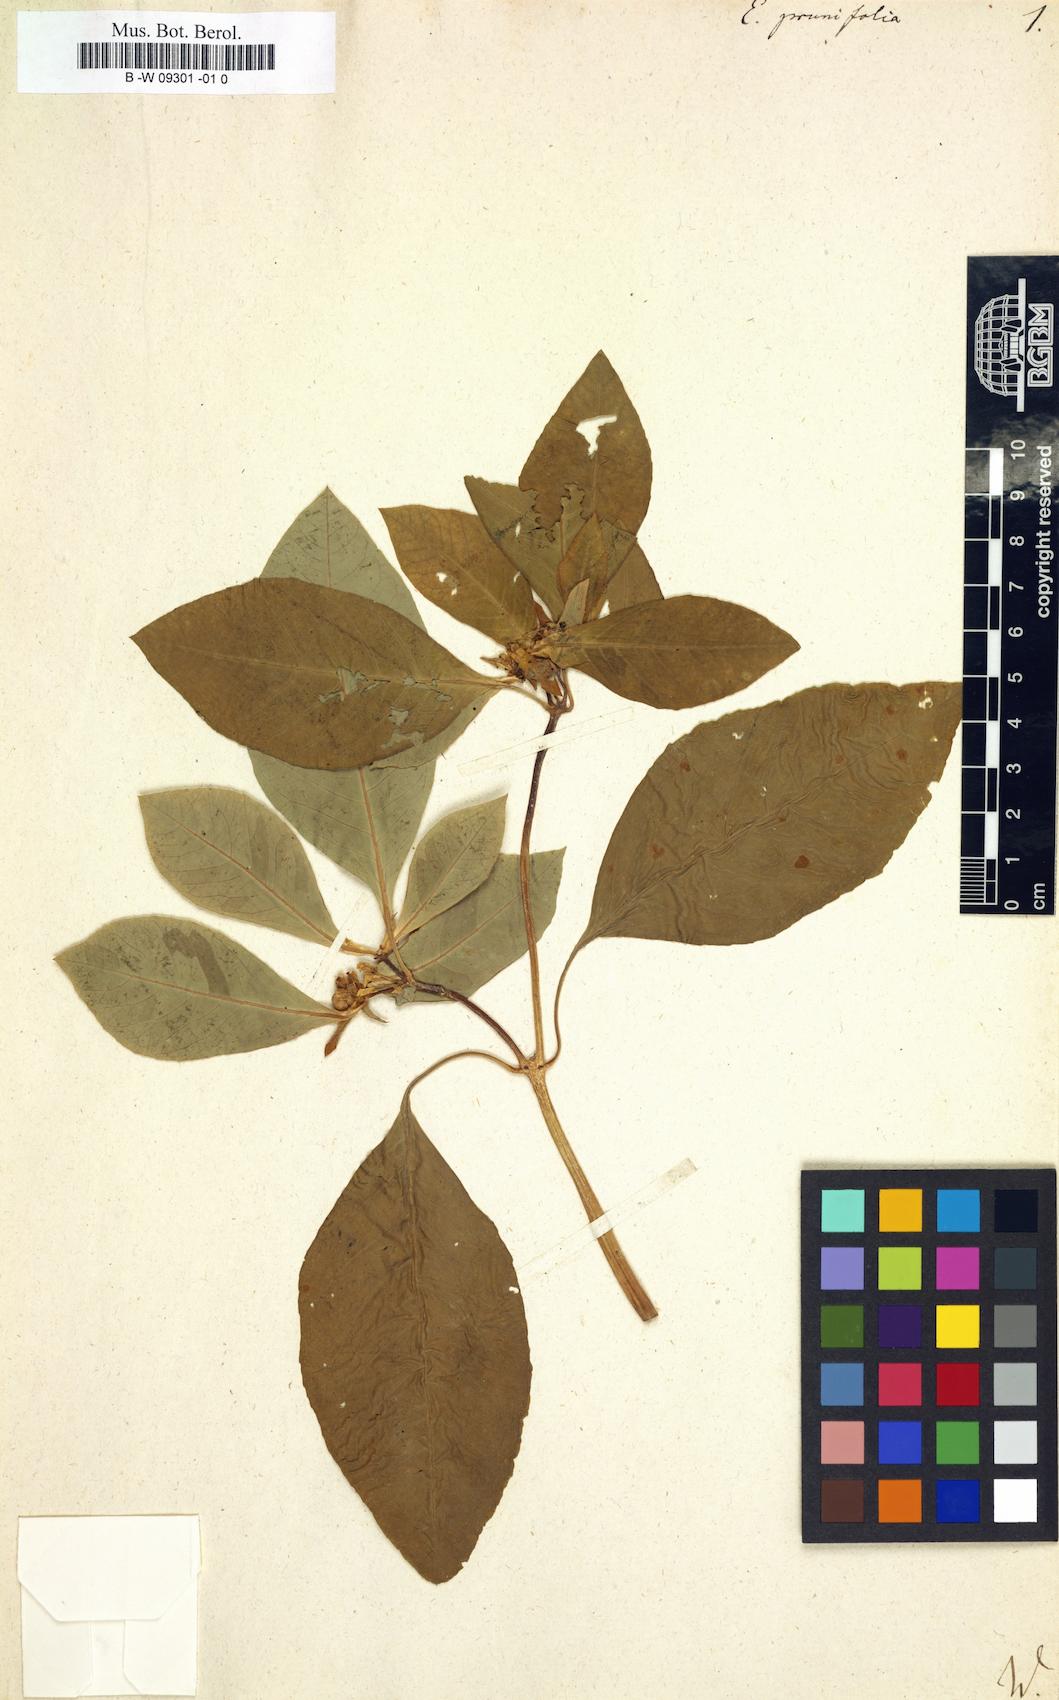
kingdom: Plantae
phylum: Tracheophyta
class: Magnoliopsida
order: Malpighiales
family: Euphorbiaceae
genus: Euphorbia
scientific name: Euphorbia heterophylla
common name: Mexican fireplant
